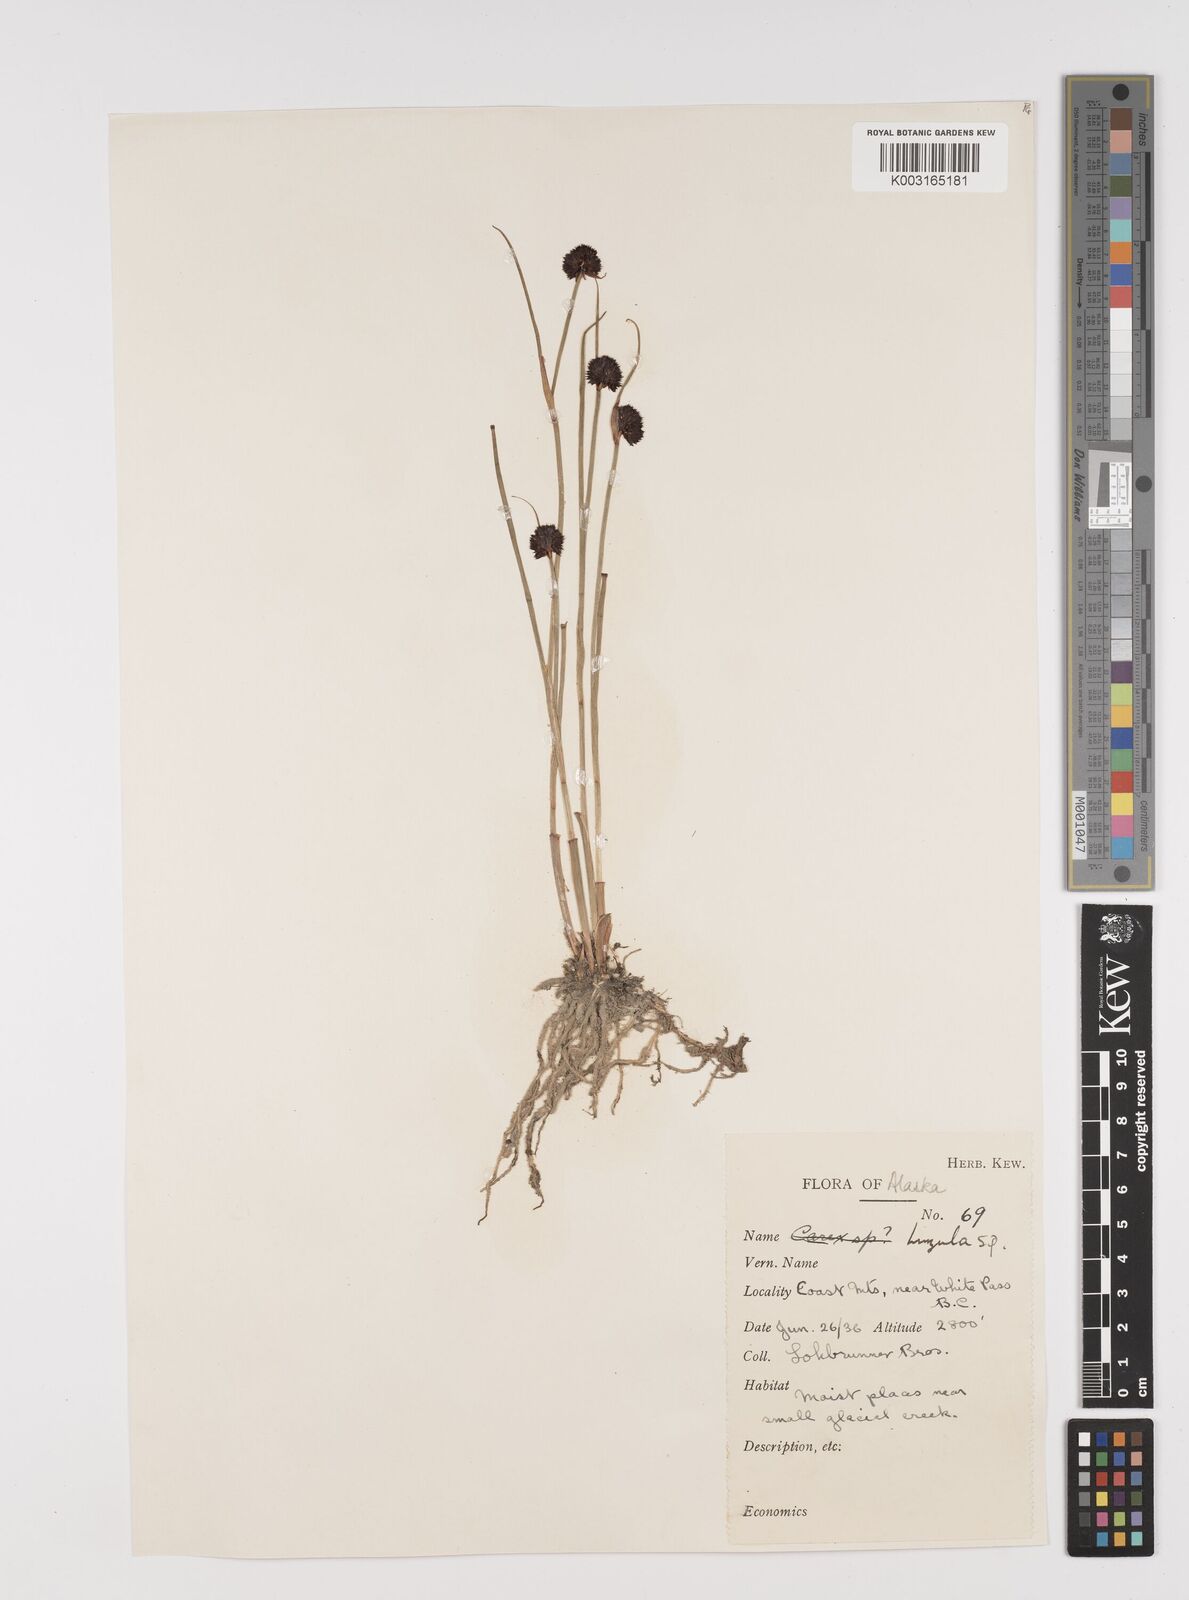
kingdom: Plantae
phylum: Tracheophyta
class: Liliopsida
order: Poales
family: Juncaceae
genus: Luzula
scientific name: Luzula
